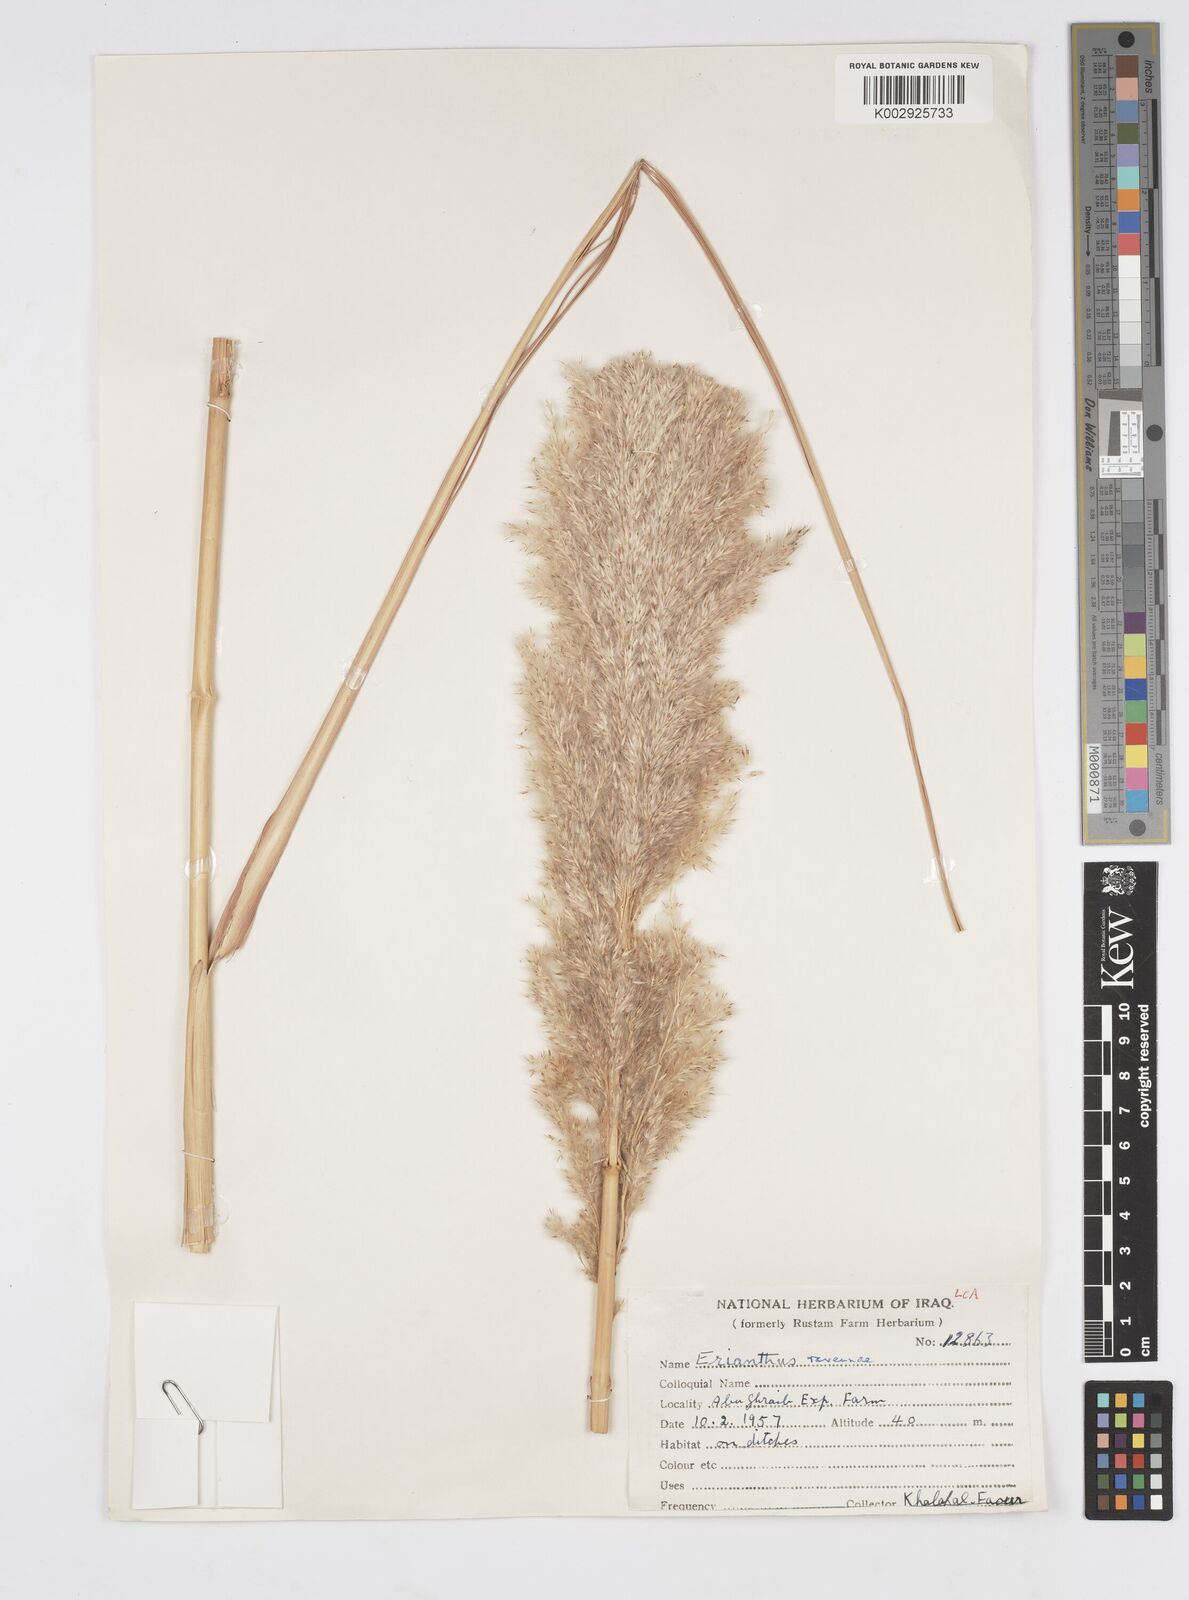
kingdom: Plantae
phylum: Tracheophyta
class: Liliopsida
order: Poales
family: Poaceae
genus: Tripidium
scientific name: Tripidium ravennae
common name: Ravenna grass
